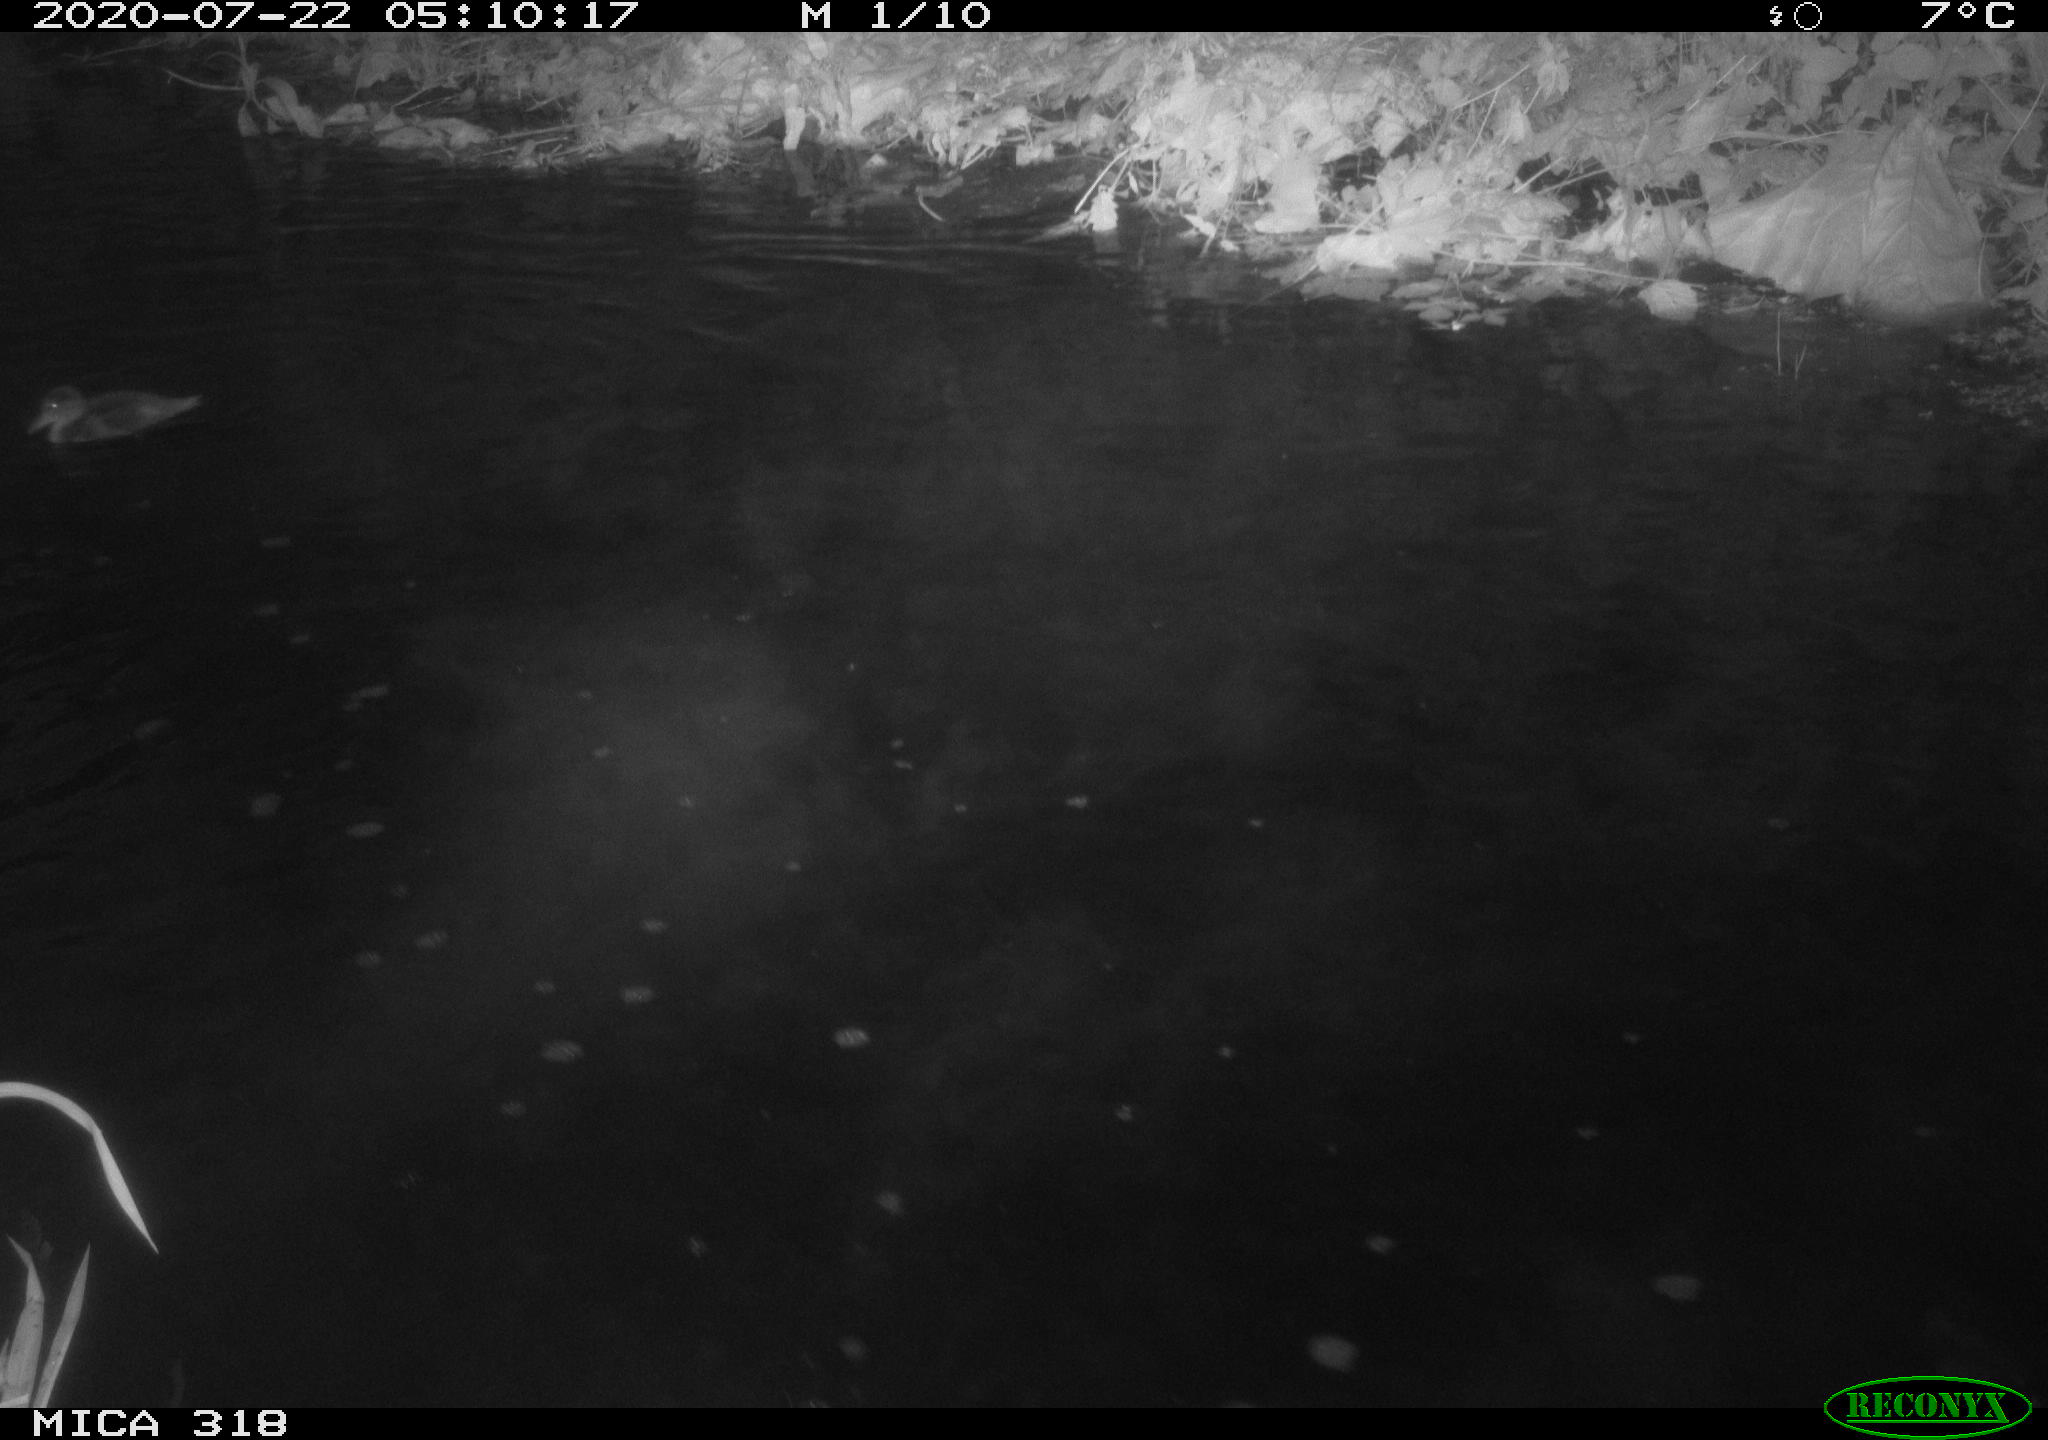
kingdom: Animalia
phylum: Chordata
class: Aves
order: Anseriformes
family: Anatidae
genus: Anas
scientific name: Anas platyrhynchos
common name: Mallard
